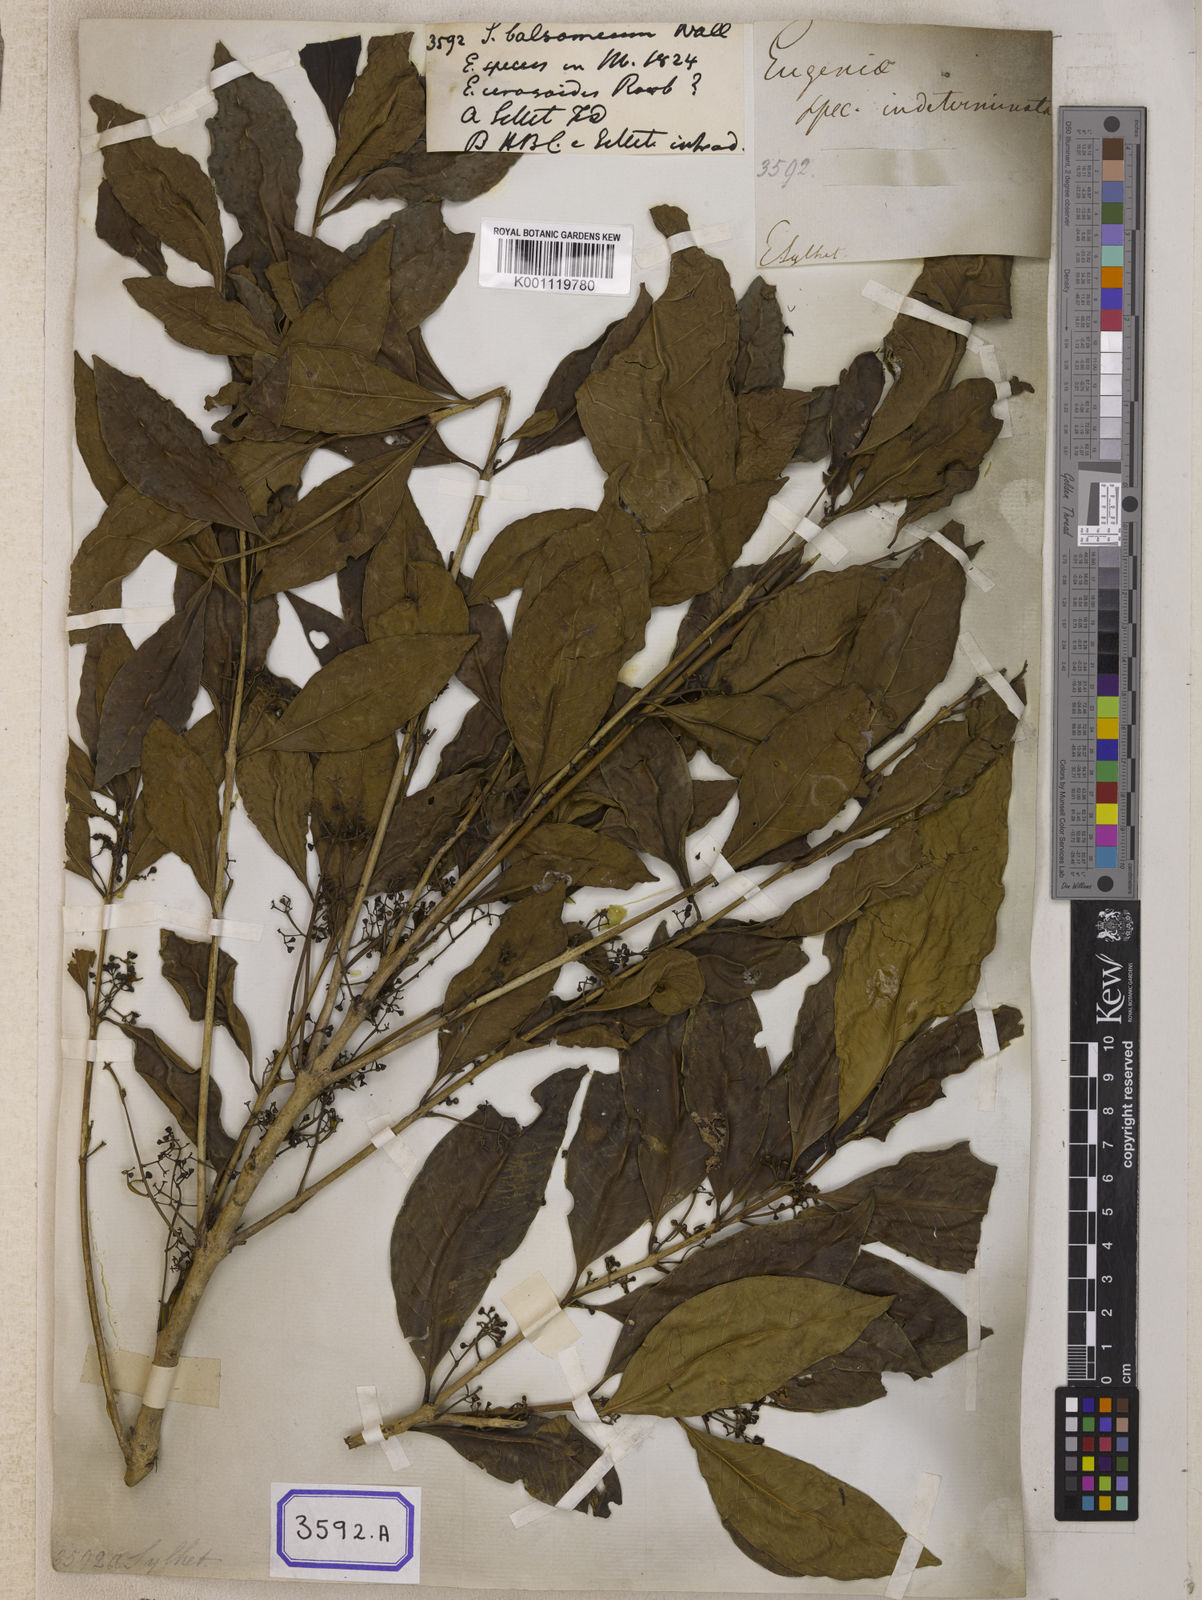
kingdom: Plantae
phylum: Tracheophyta
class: Magnoliopsida
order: Myrtales
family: Myrtaceae
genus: Syzygium
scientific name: Syzygium balsameum
